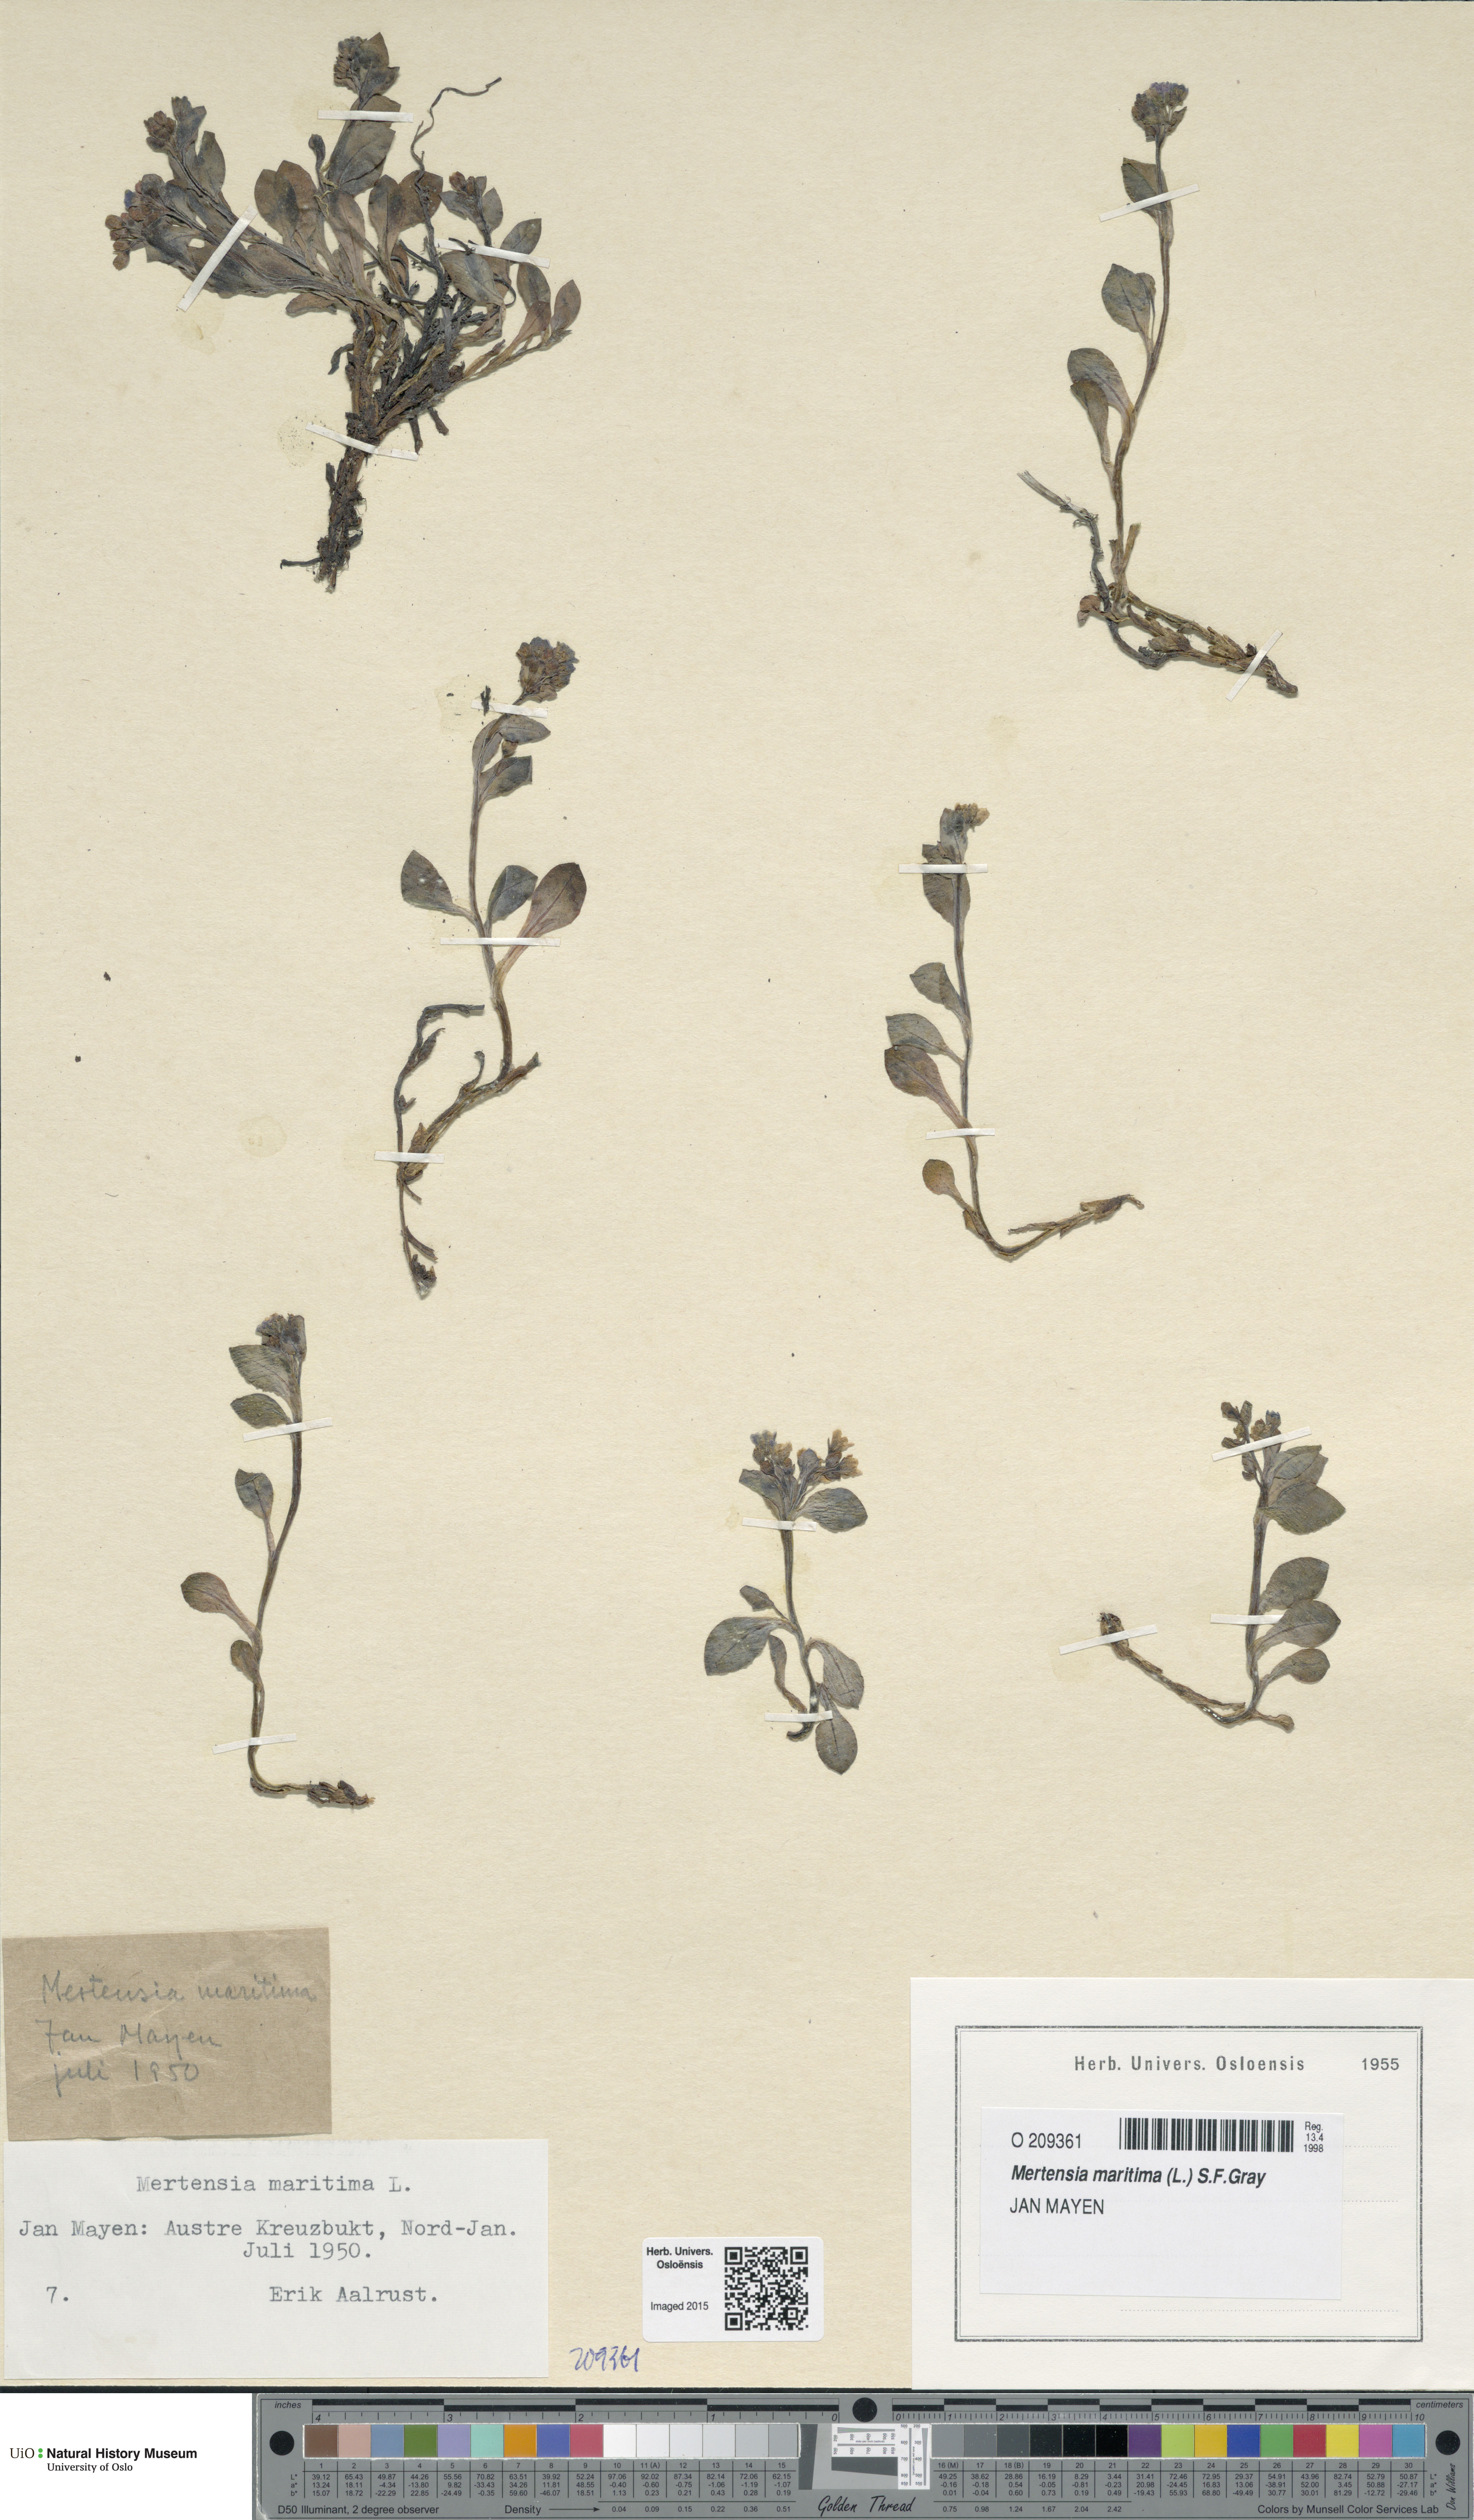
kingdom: Plantae
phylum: Tracheophyta
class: Magnoliopsida
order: Boraginales
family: Boraginaceae
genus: Mertensia
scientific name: Mertensia maritima
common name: Oysterplant
